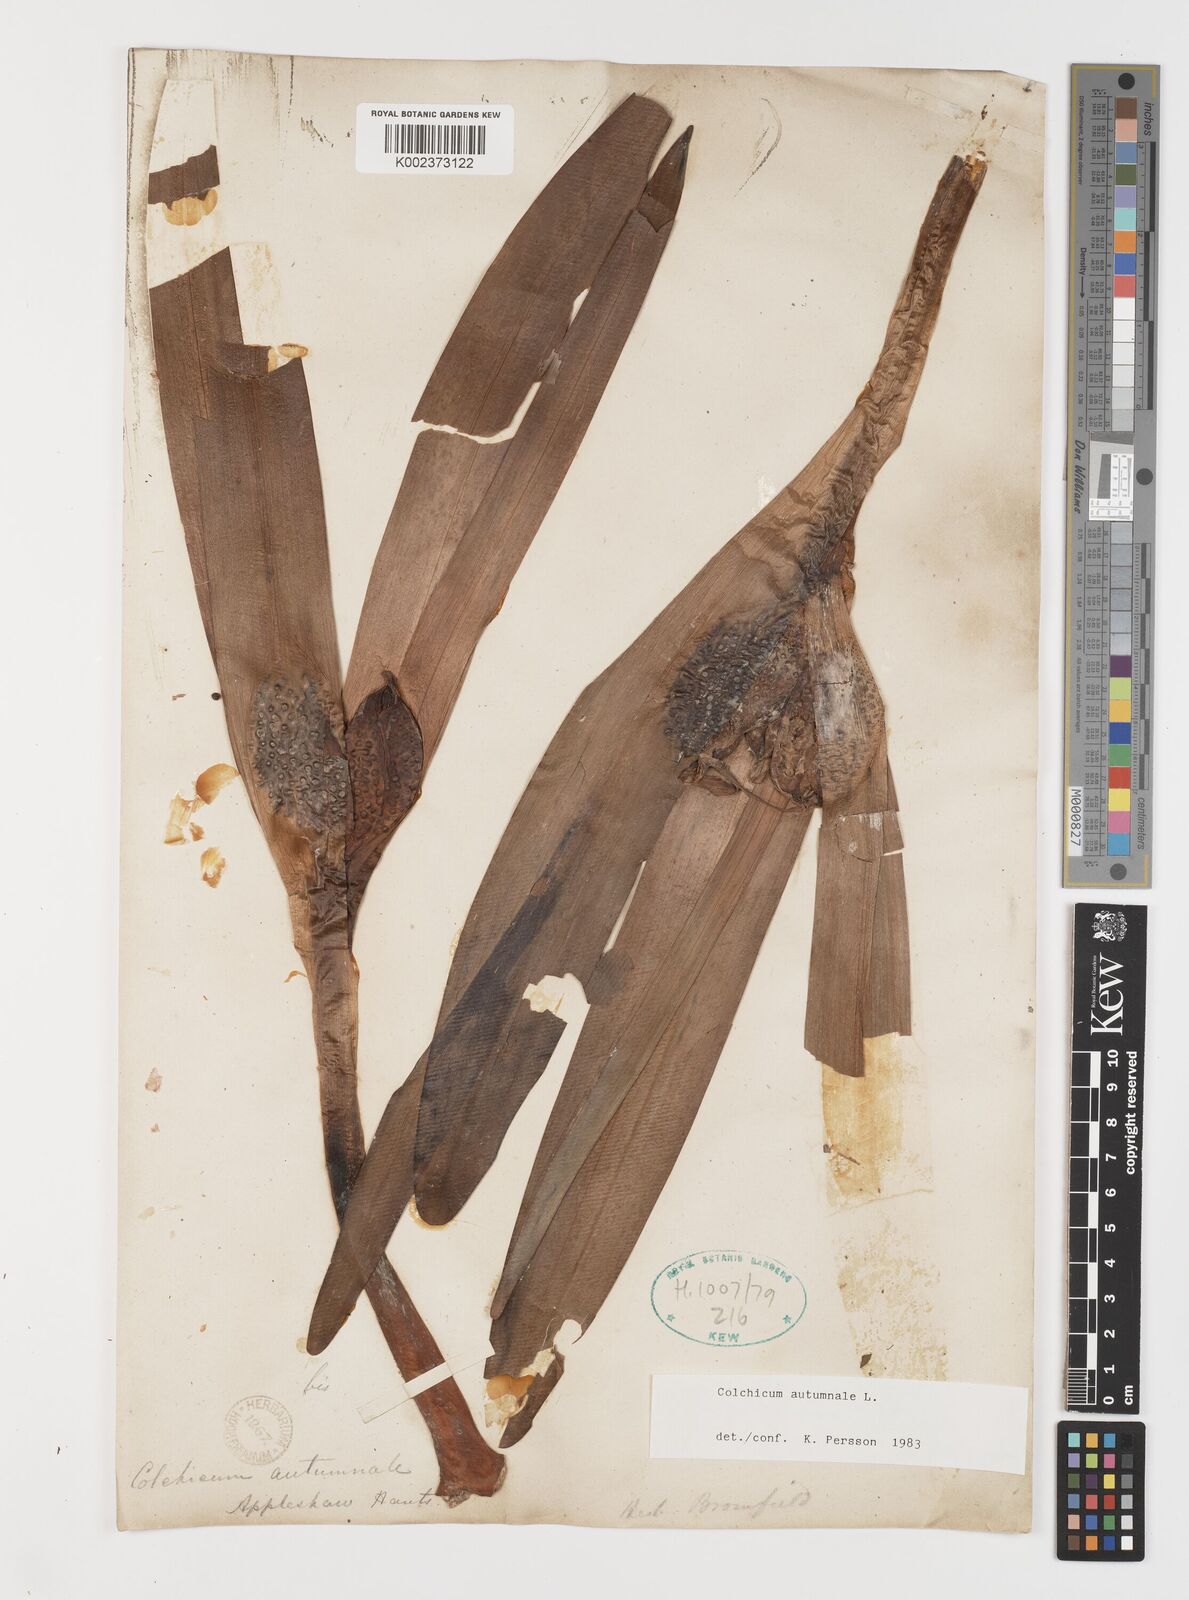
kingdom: Plantae
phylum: Tracheophyta
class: Liliopsida
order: Liliales
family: Colchicaceae
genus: Colchicum
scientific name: Colchicum autumnale
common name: Autumn crocus
